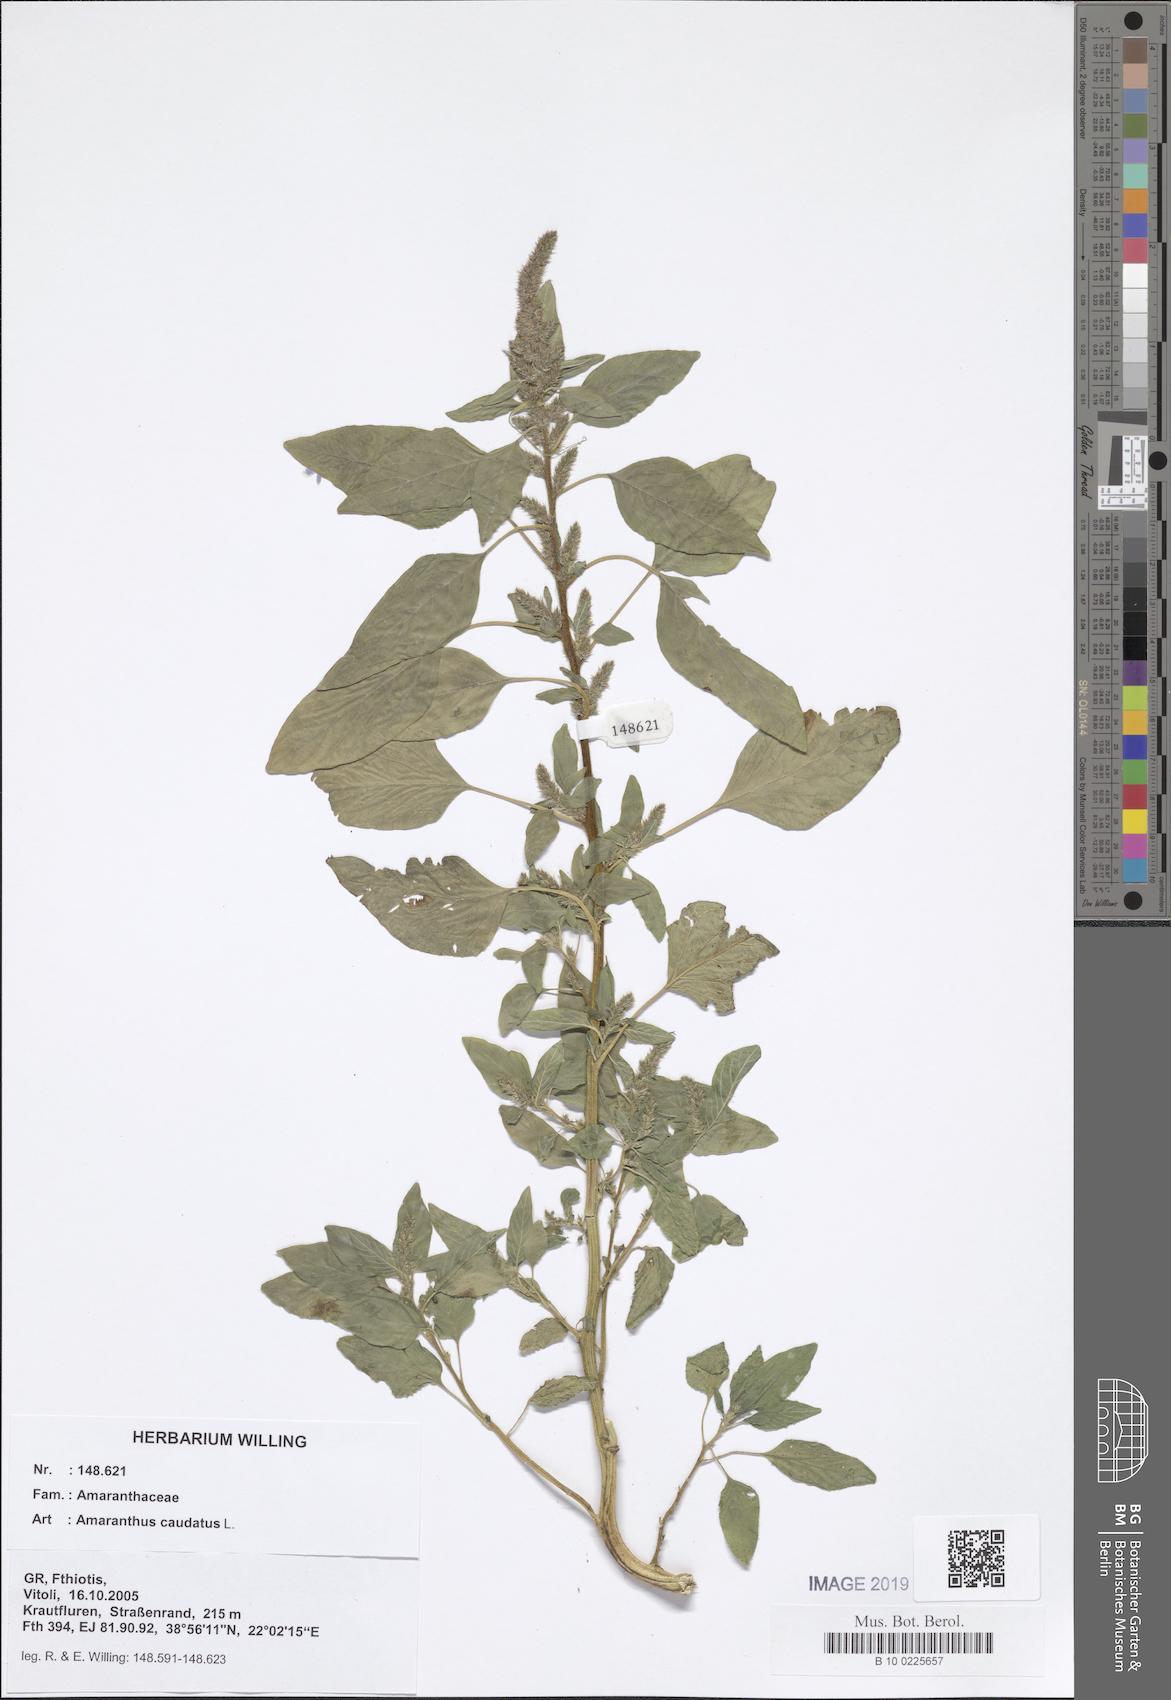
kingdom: Plantae
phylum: Tracheophyta
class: Magnoliopsida
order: Caryophyllales
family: Amaranthaceae
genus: Amaranthus
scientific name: Amaranthus caudatus
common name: Love-lies-bleeding
